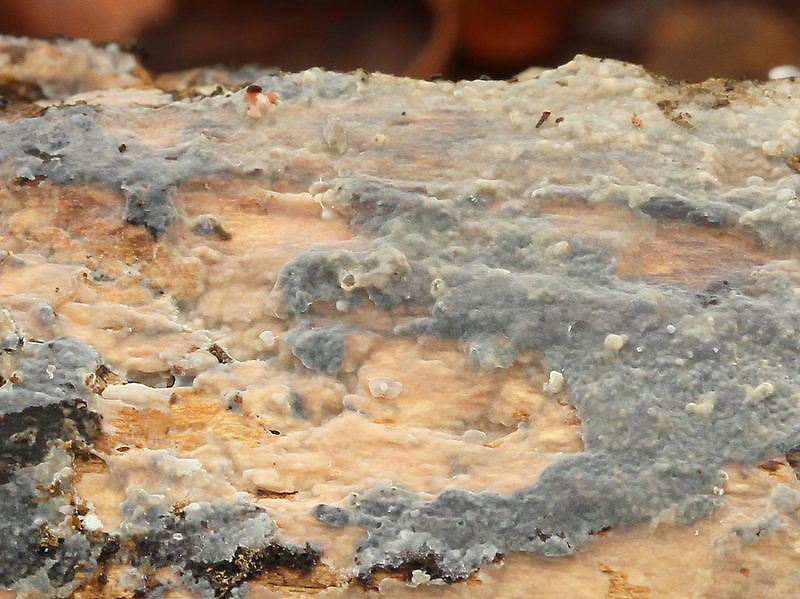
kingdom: Fungi
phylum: Basidiomycota
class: Agaricomycetes
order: Agaricales
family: Radulomycetaceae
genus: Radulomyces
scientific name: Radulomyces confluens
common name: glat naftalinskind
